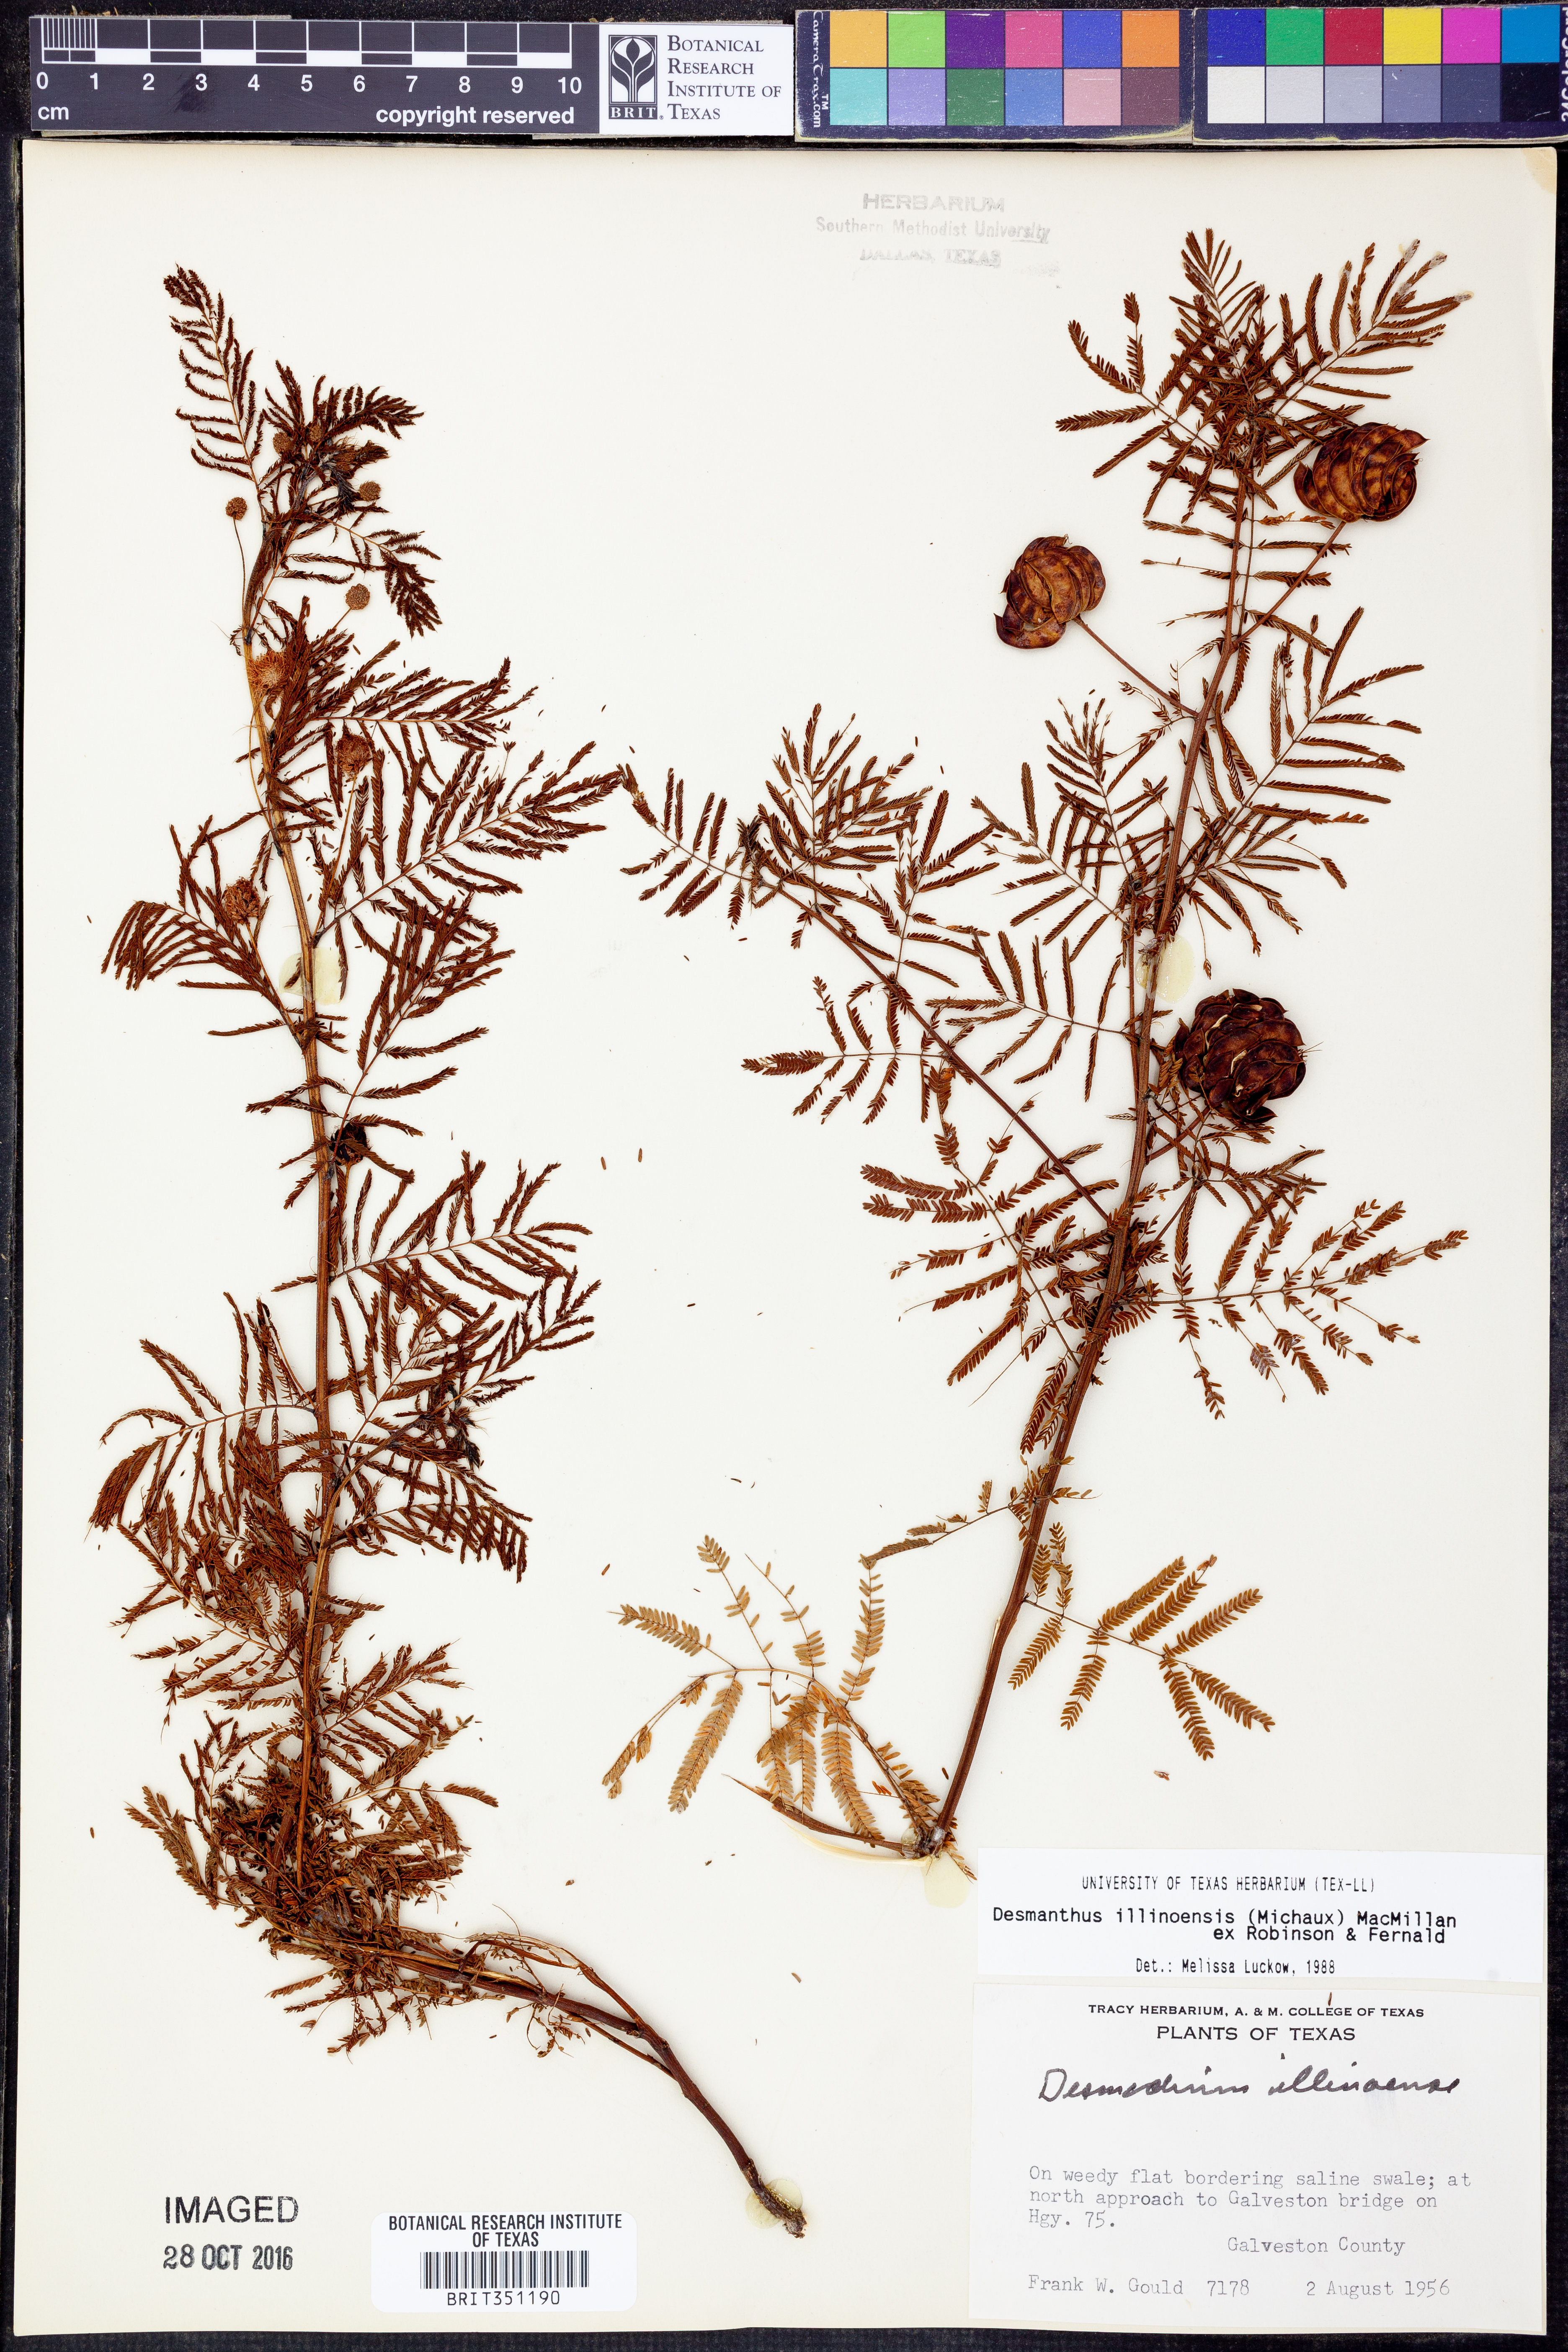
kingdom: Plantae
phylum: Tracheophyta
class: Magnoliopsida
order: Fabales
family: Fabaceae
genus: Desmanthus
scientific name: Desmanthus illinoensis
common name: Illinois bundle-flower
